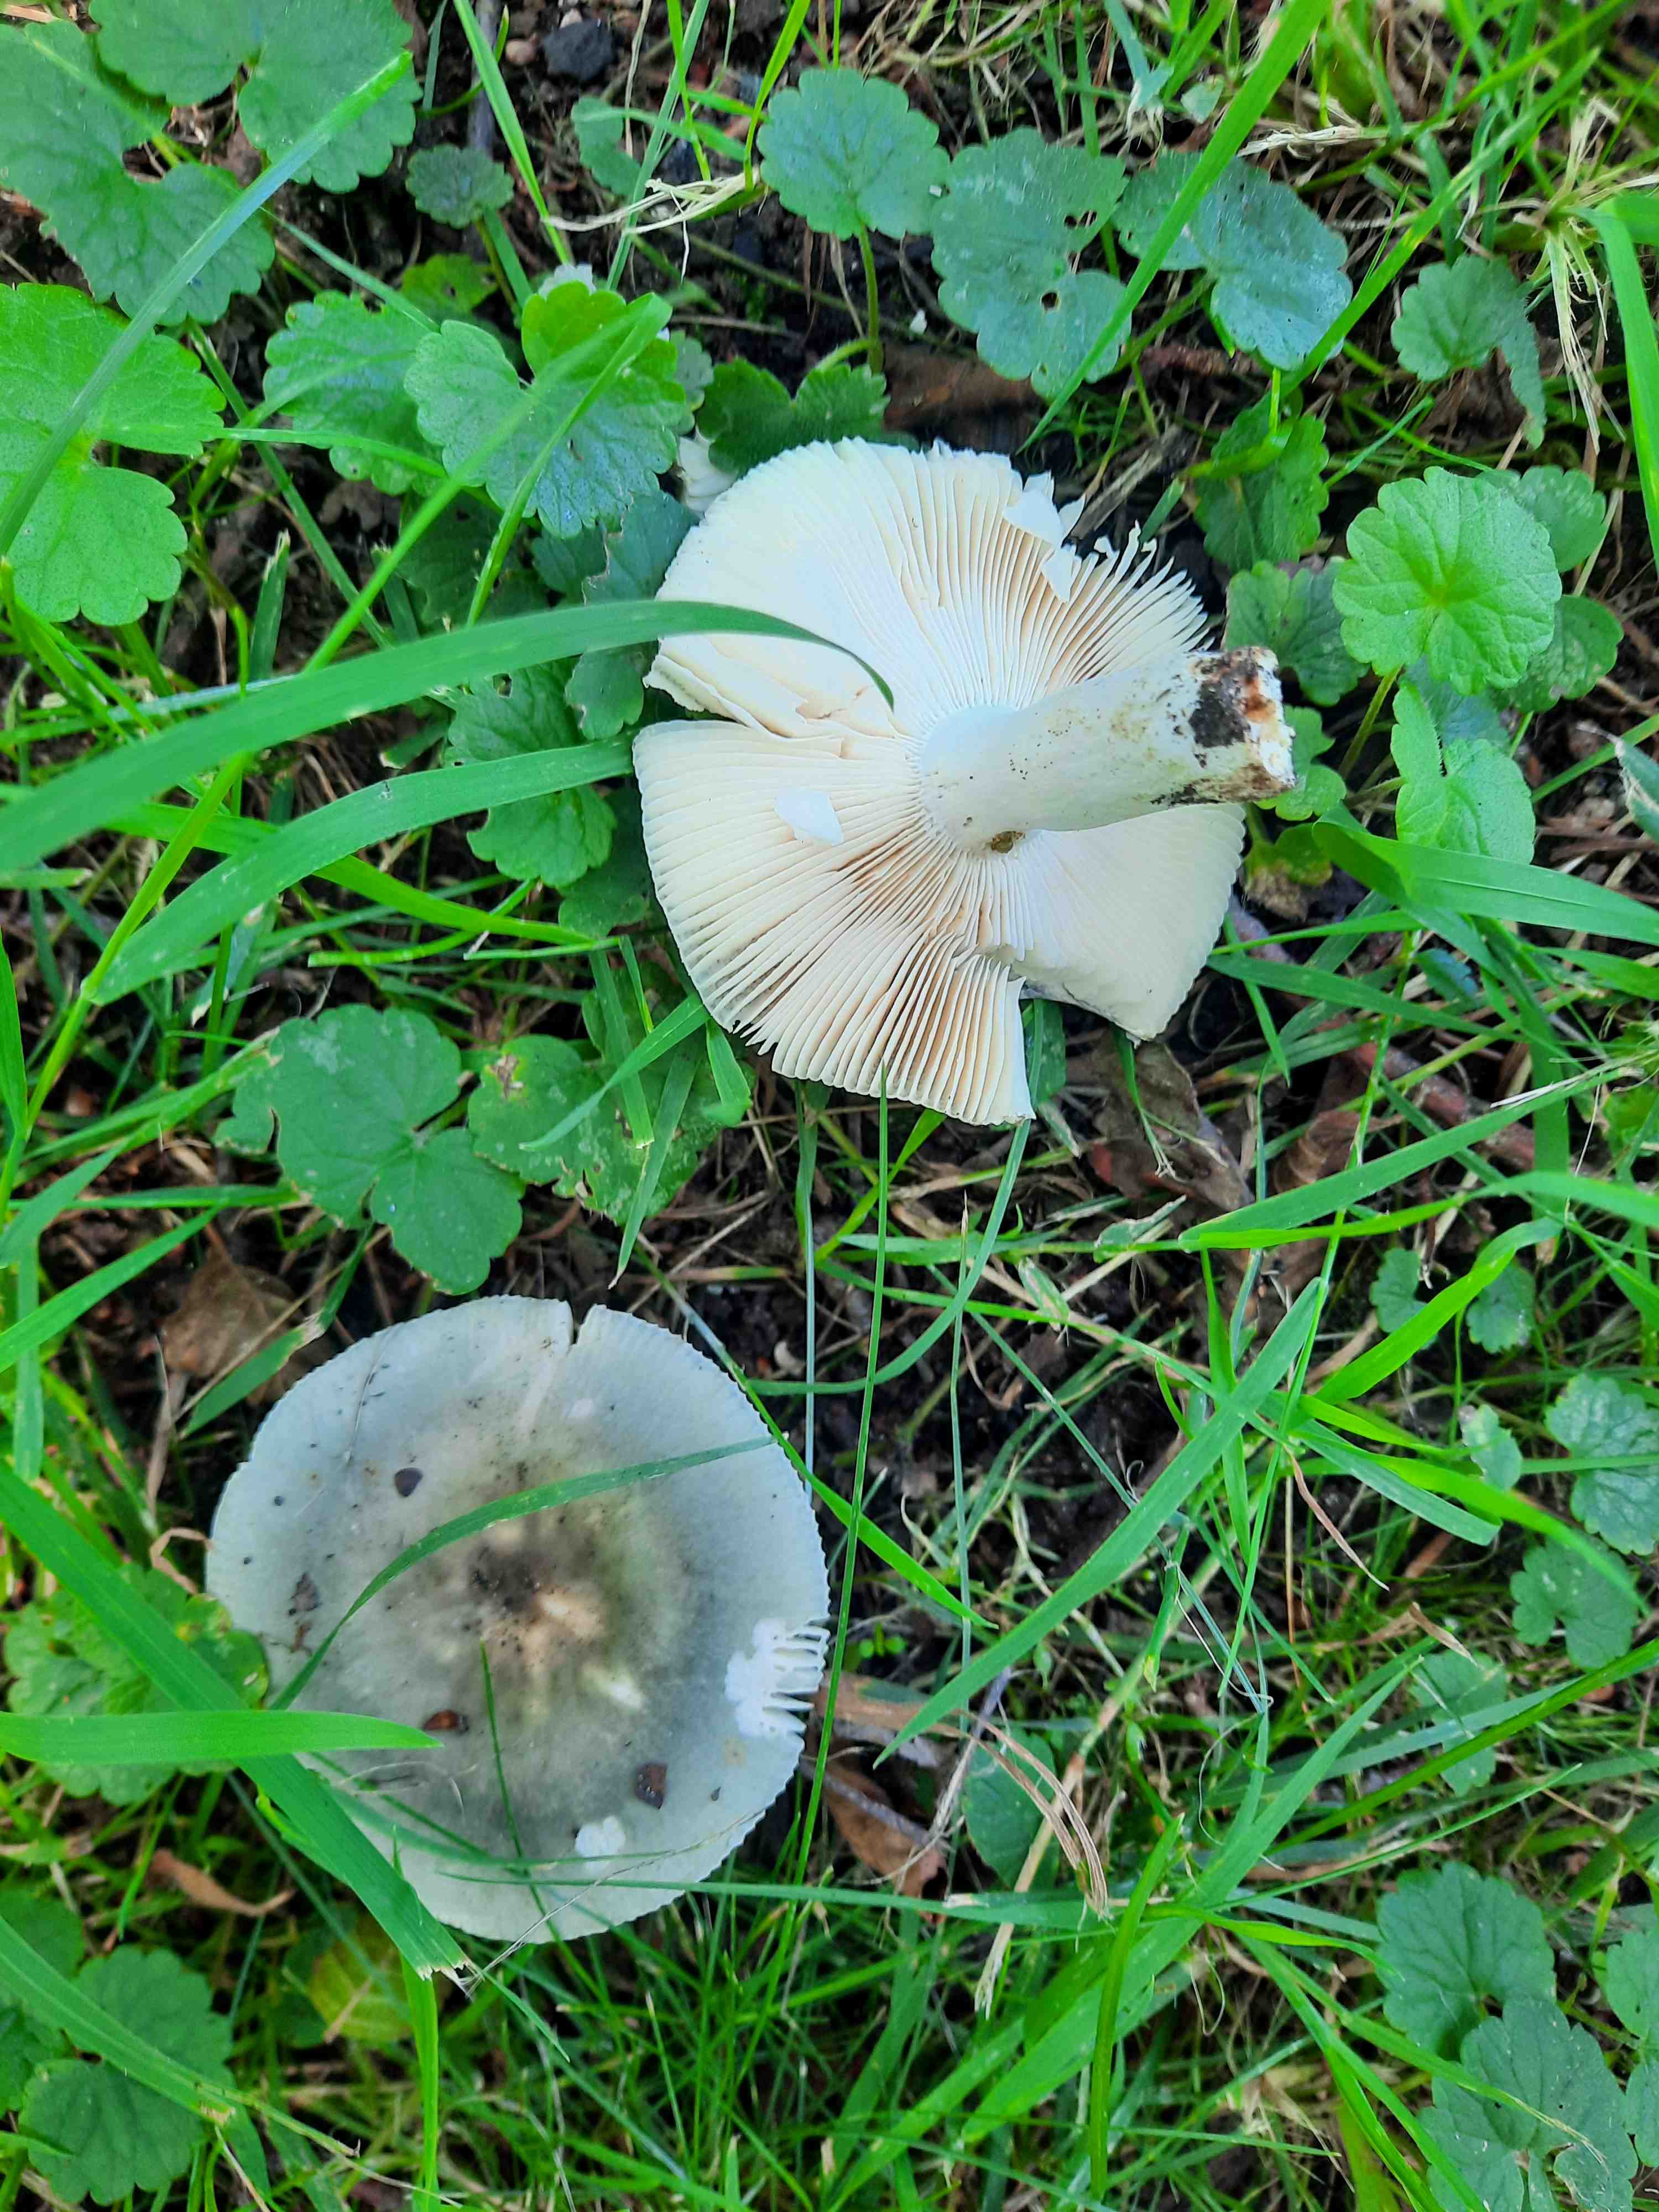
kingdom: Fungi
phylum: Basidiomycota
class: Agaricomycetes
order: Russulales
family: Russulaceae
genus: Russula
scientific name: Russula
